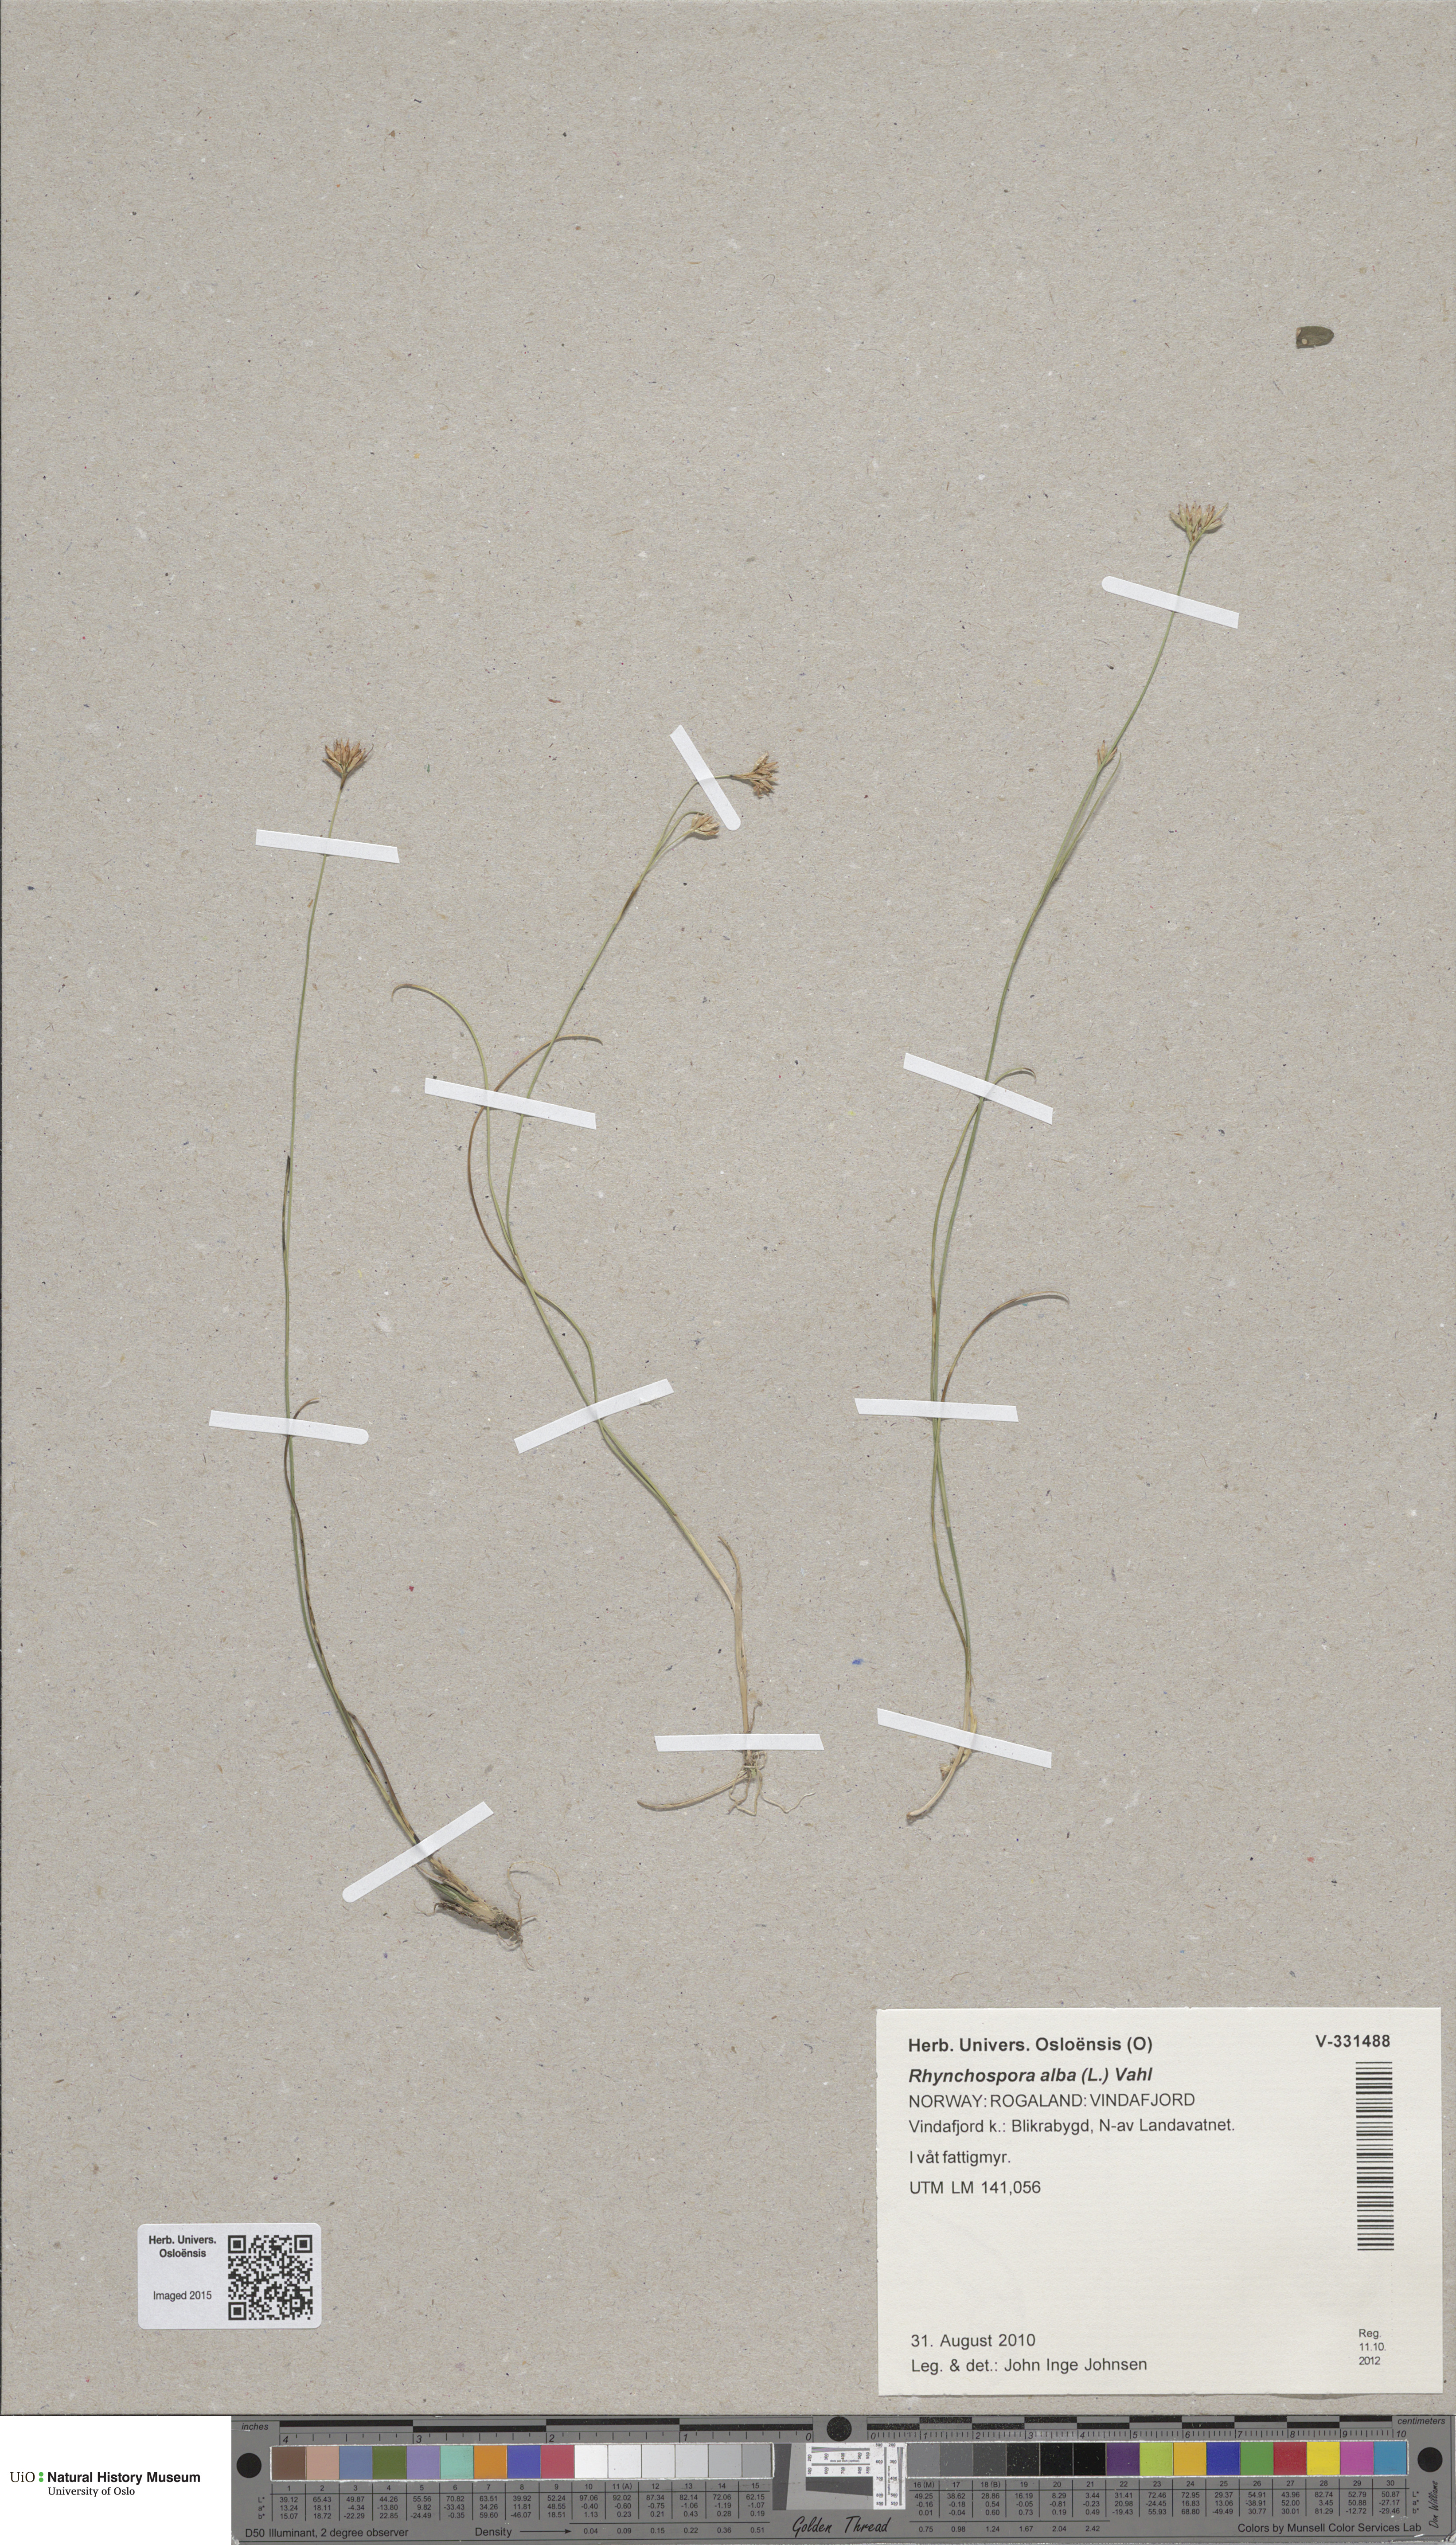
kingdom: Plantae
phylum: Tracheophyta
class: Liliopsida
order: Poales
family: Cyperaceae
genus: Rhynchospora
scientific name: Rhynchospora alba
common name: White beak-sedge
